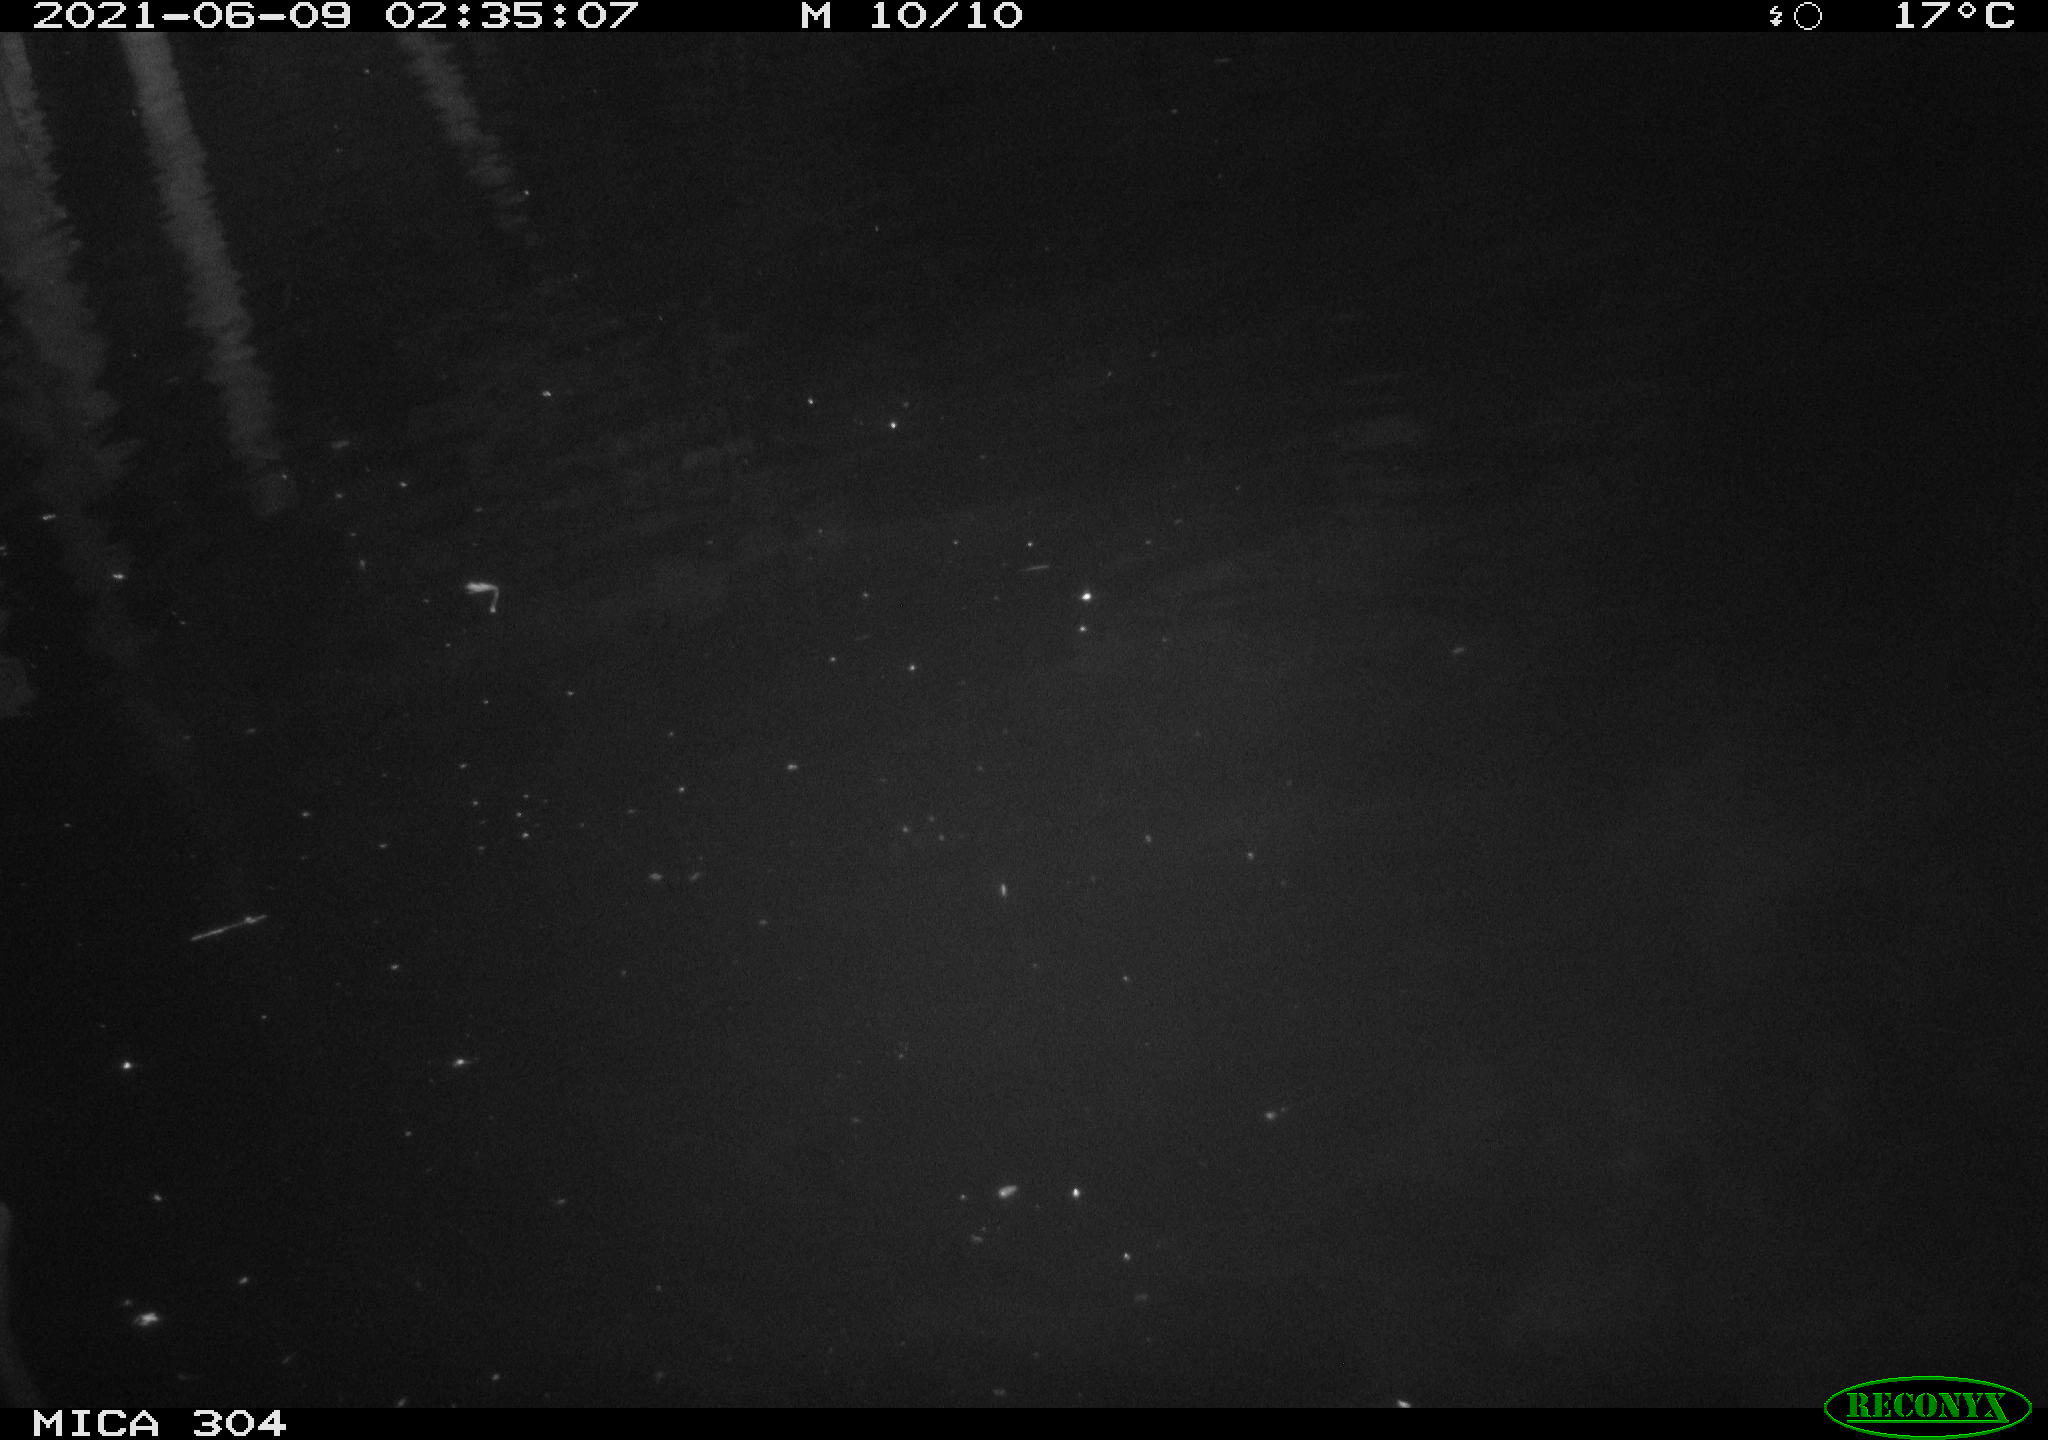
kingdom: Animalia
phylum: Chordata
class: Mammalia
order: Rodentia
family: Cricetidae
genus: Ondatra
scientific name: Ondatra zibethicus
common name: Muskrat
